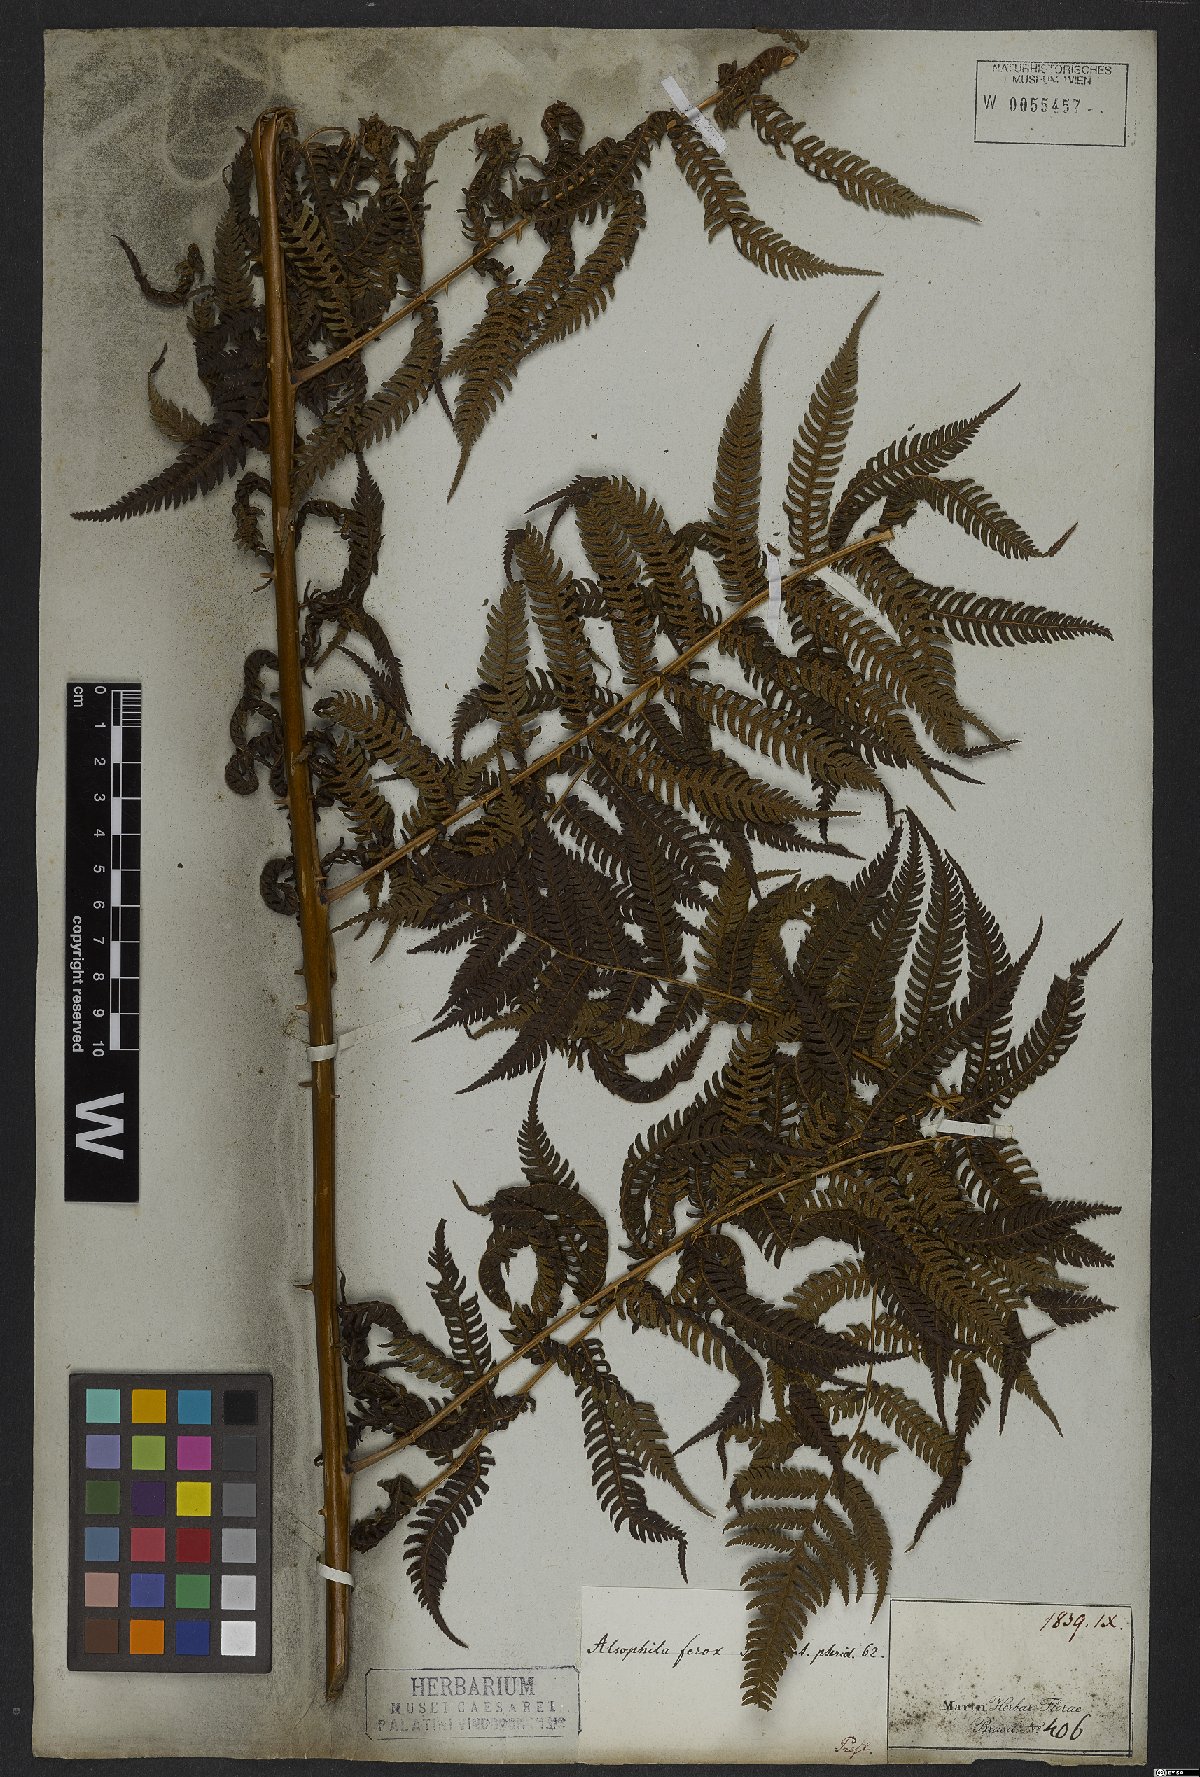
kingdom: Plantae
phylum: Tracheophyta
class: Polypodiopsida
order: Cyatheales
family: Cyatheaceae
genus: Cyathea
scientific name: Cyathea microdonta
